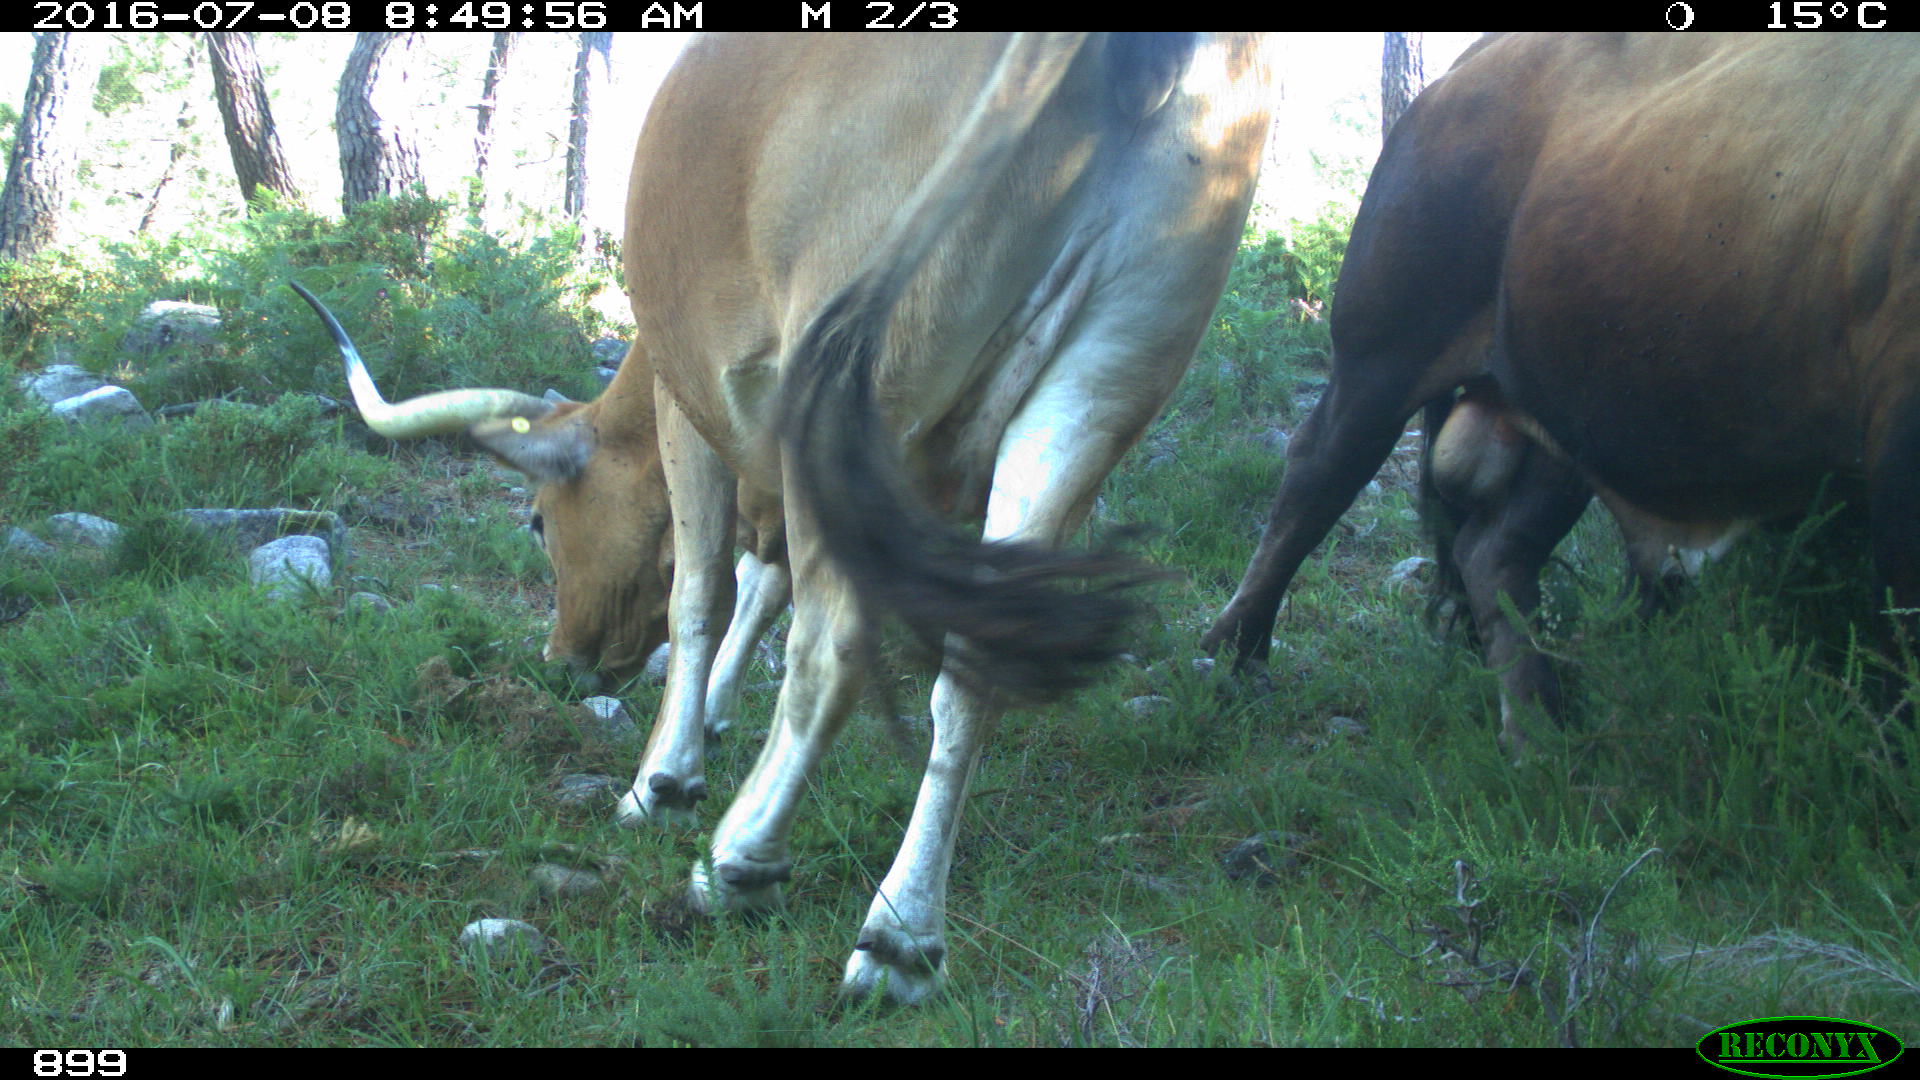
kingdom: Animalia
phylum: Chordata
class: Mammalia
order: Artiodactyla
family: Bovidae
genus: Bos
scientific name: Bos taurus
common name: Domesticated cattle
